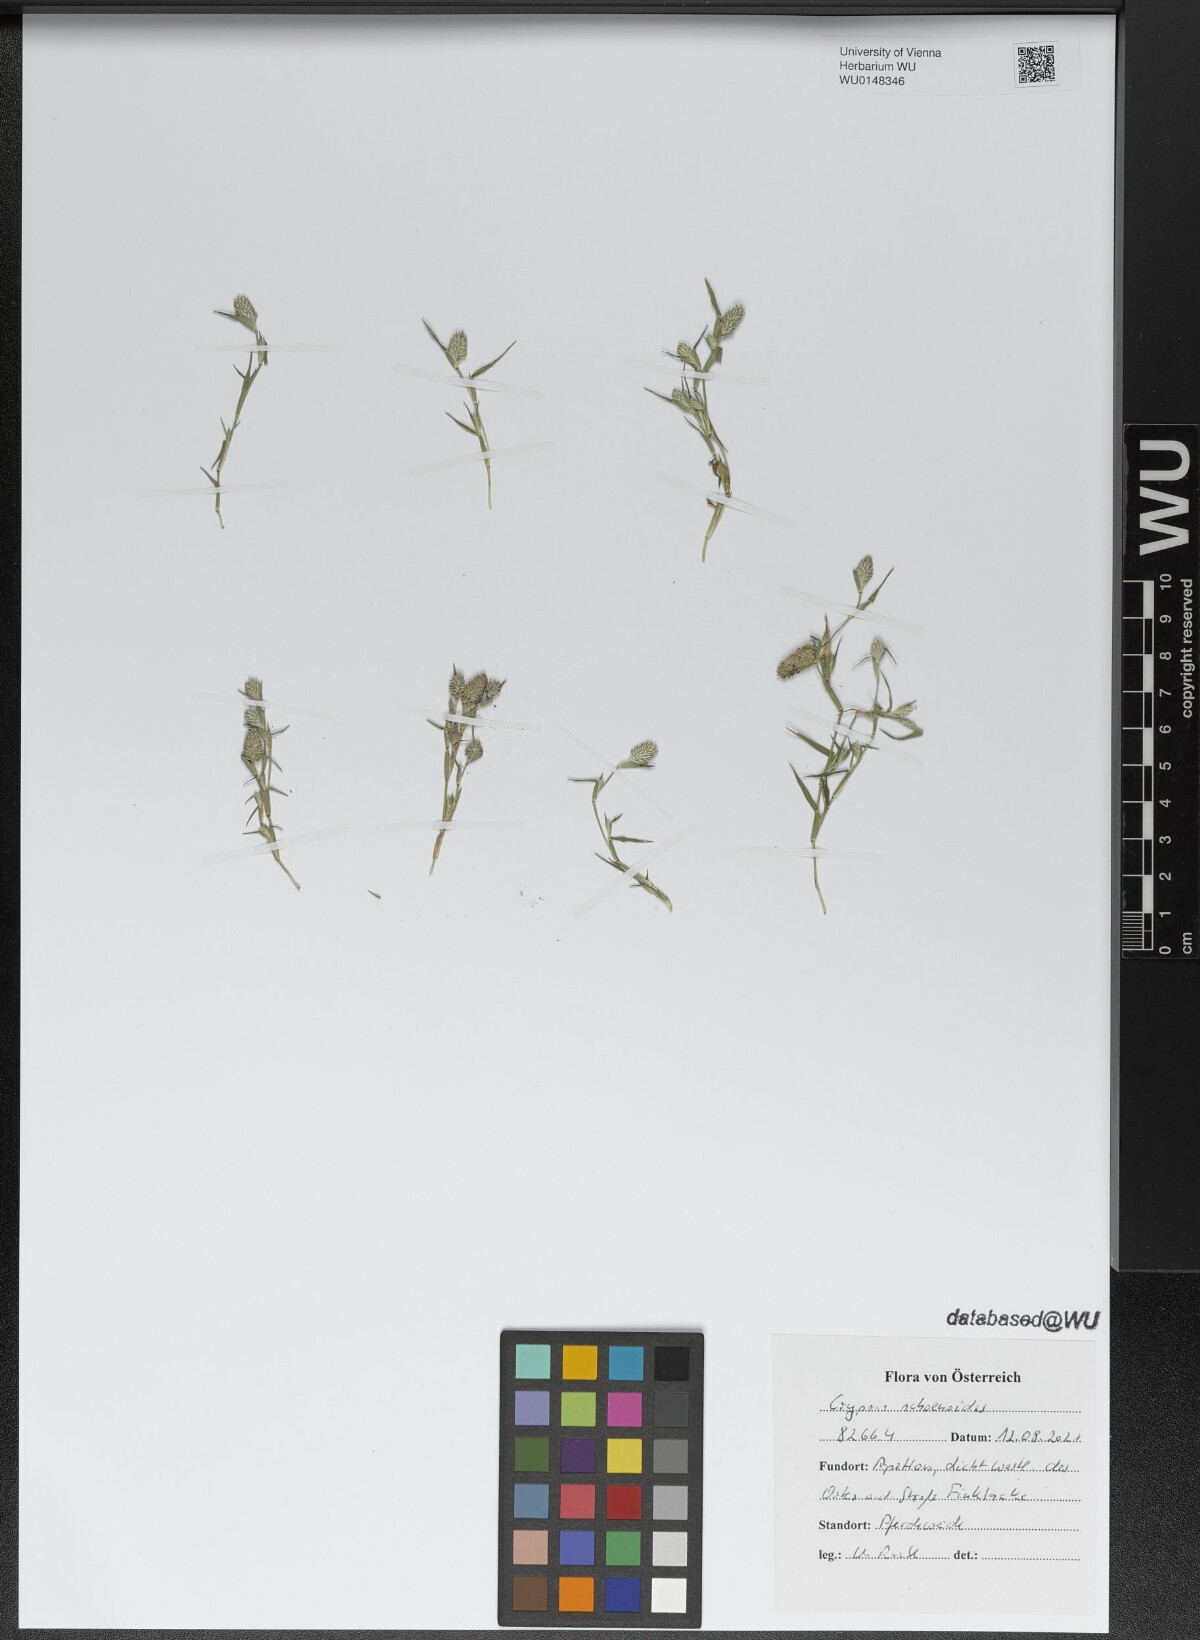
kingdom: Plantae
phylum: Tracheophyta
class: Liliopsida
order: Poales
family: Poaceae
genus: Sporobolus
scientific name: Sporobolus schoenoides
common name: Rush-like timothy
